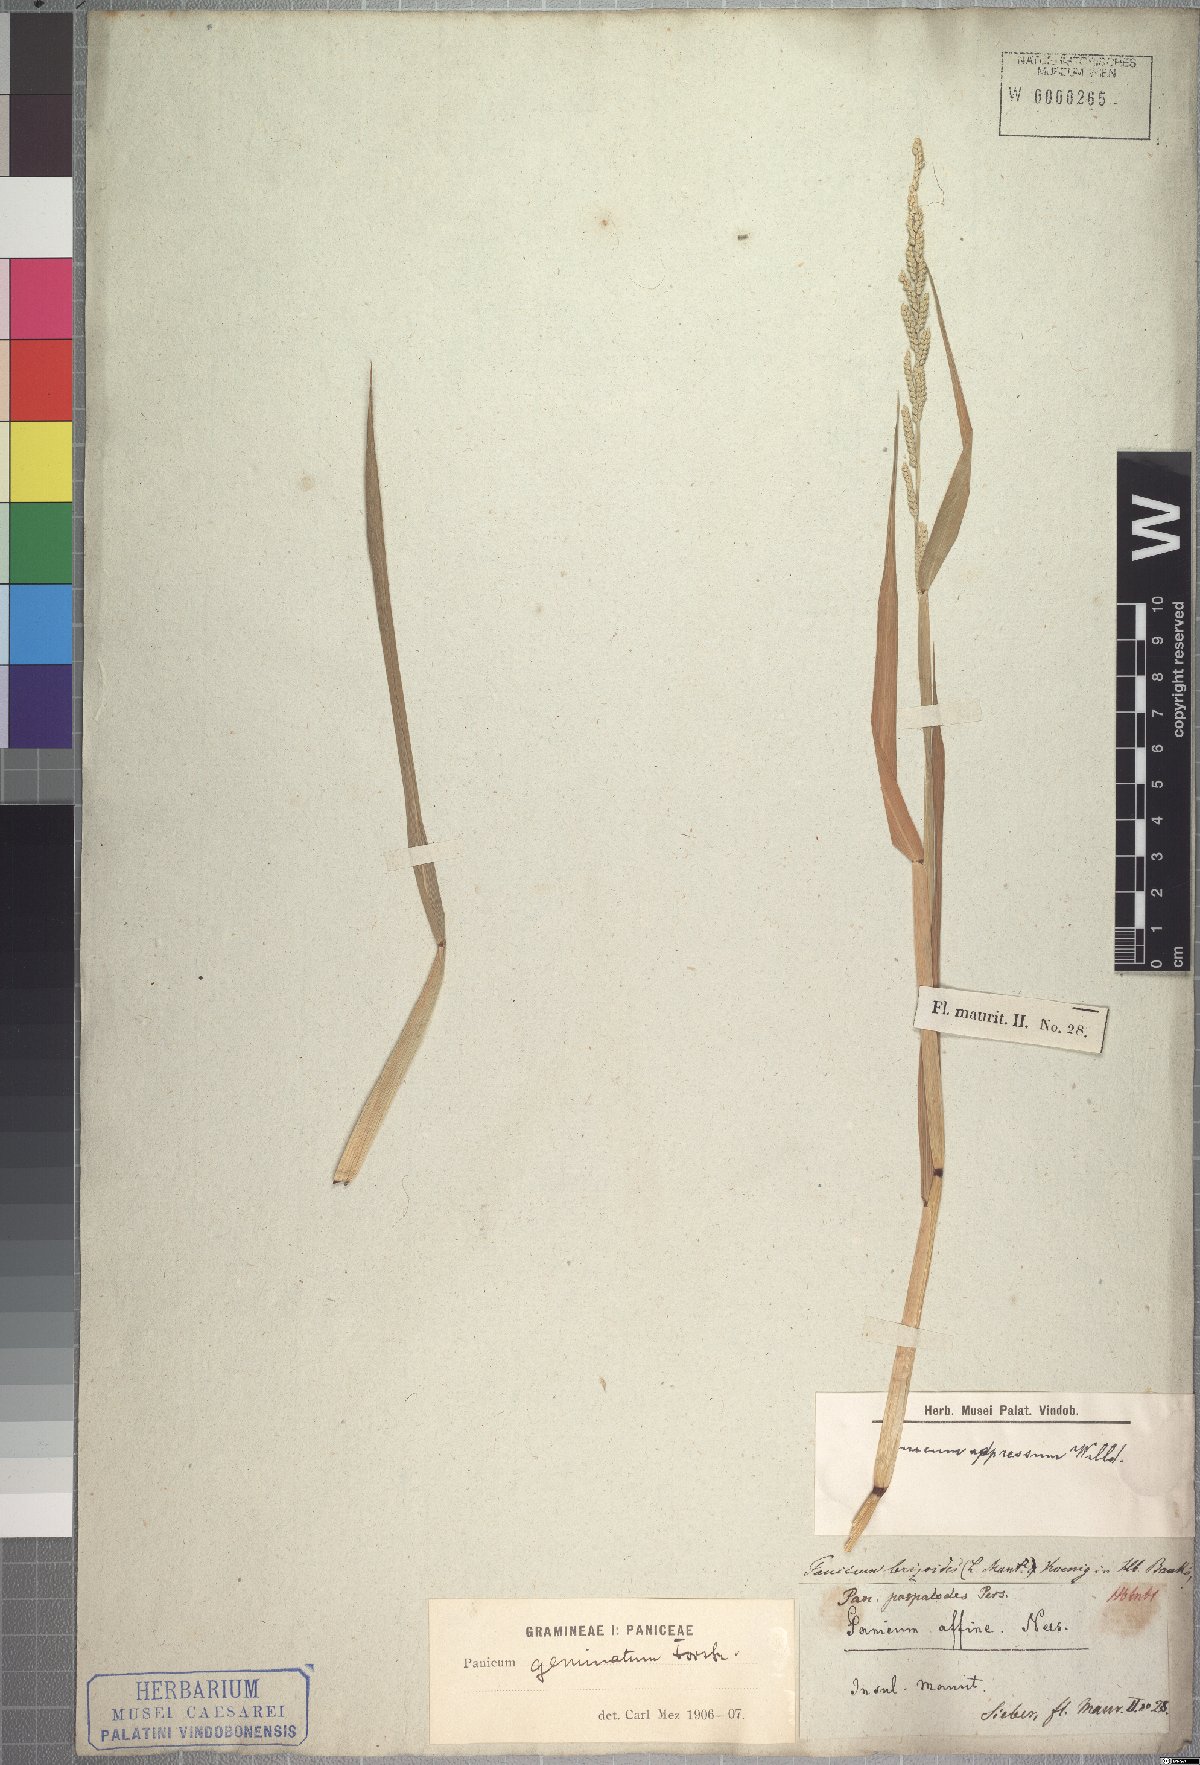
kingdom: Plantae
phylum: Tracheophyta
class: Liliopsida
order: Poales
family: Poaceae
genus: Setaria
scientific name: Setaria geminata
